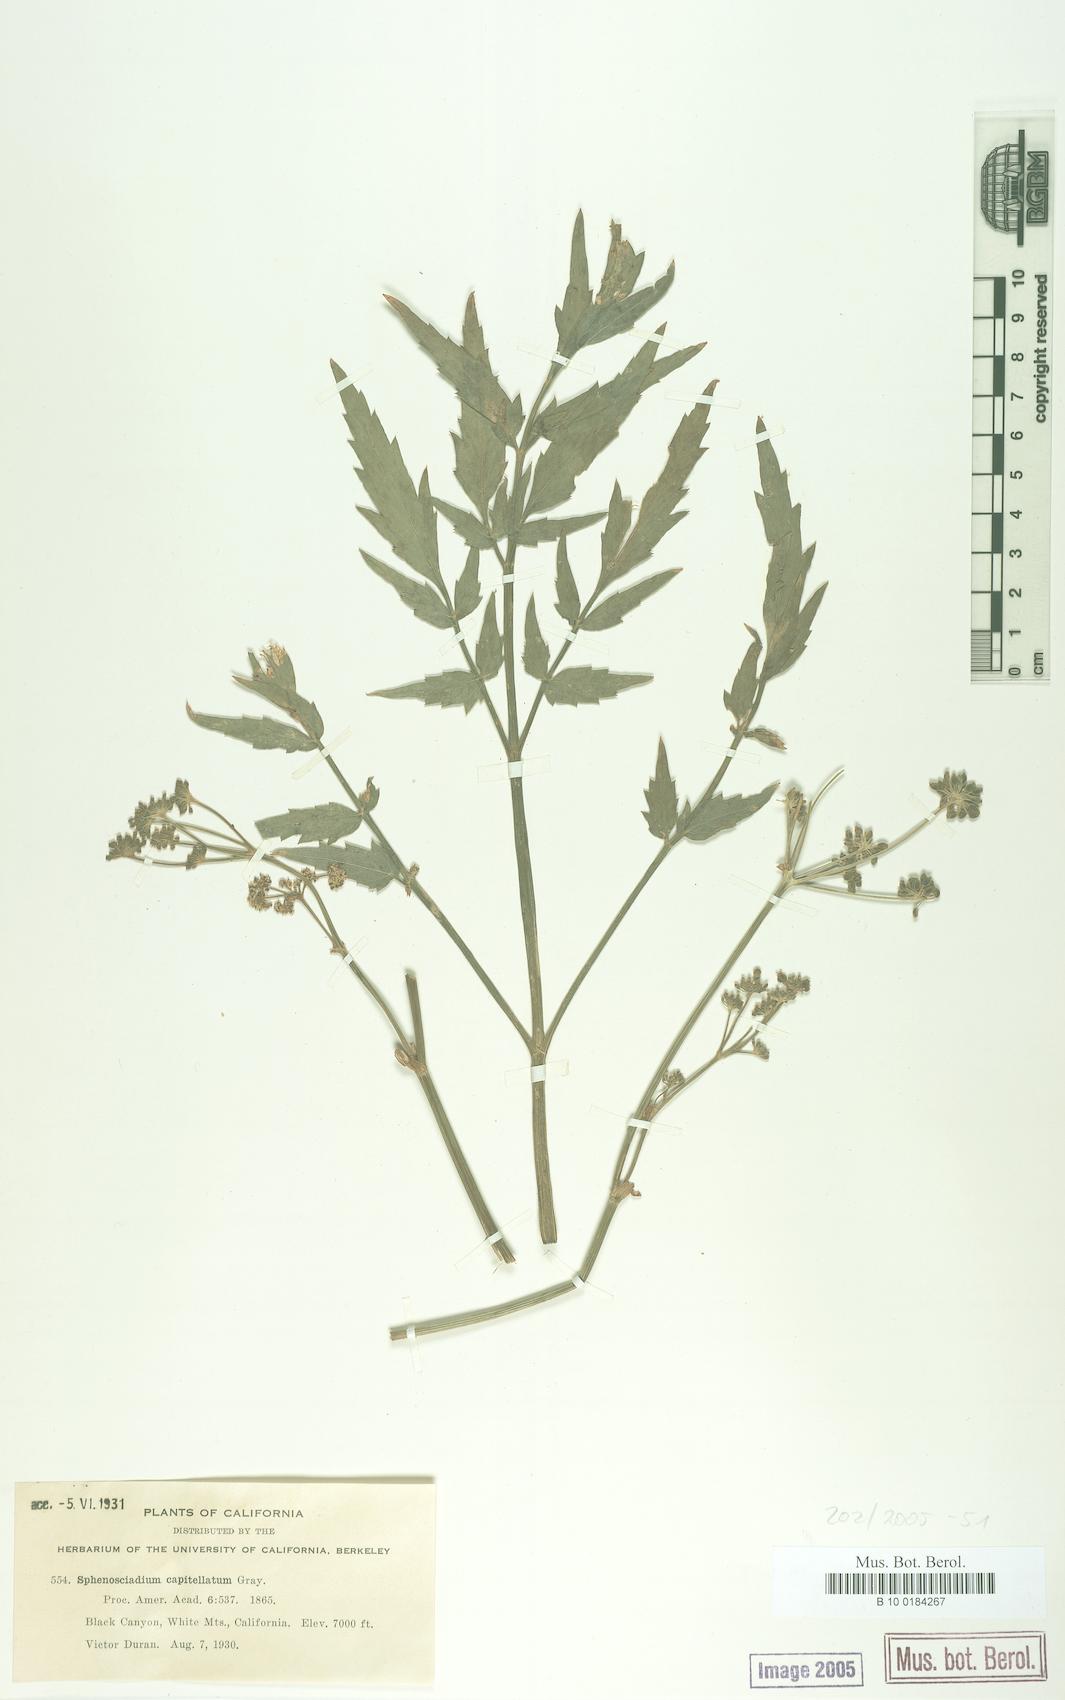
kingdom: Plantae
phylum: Tracheophyta
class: Magnoliopsida
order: Apiales
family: Apiaceae
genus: Angelica
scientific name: Angelica capitellata
